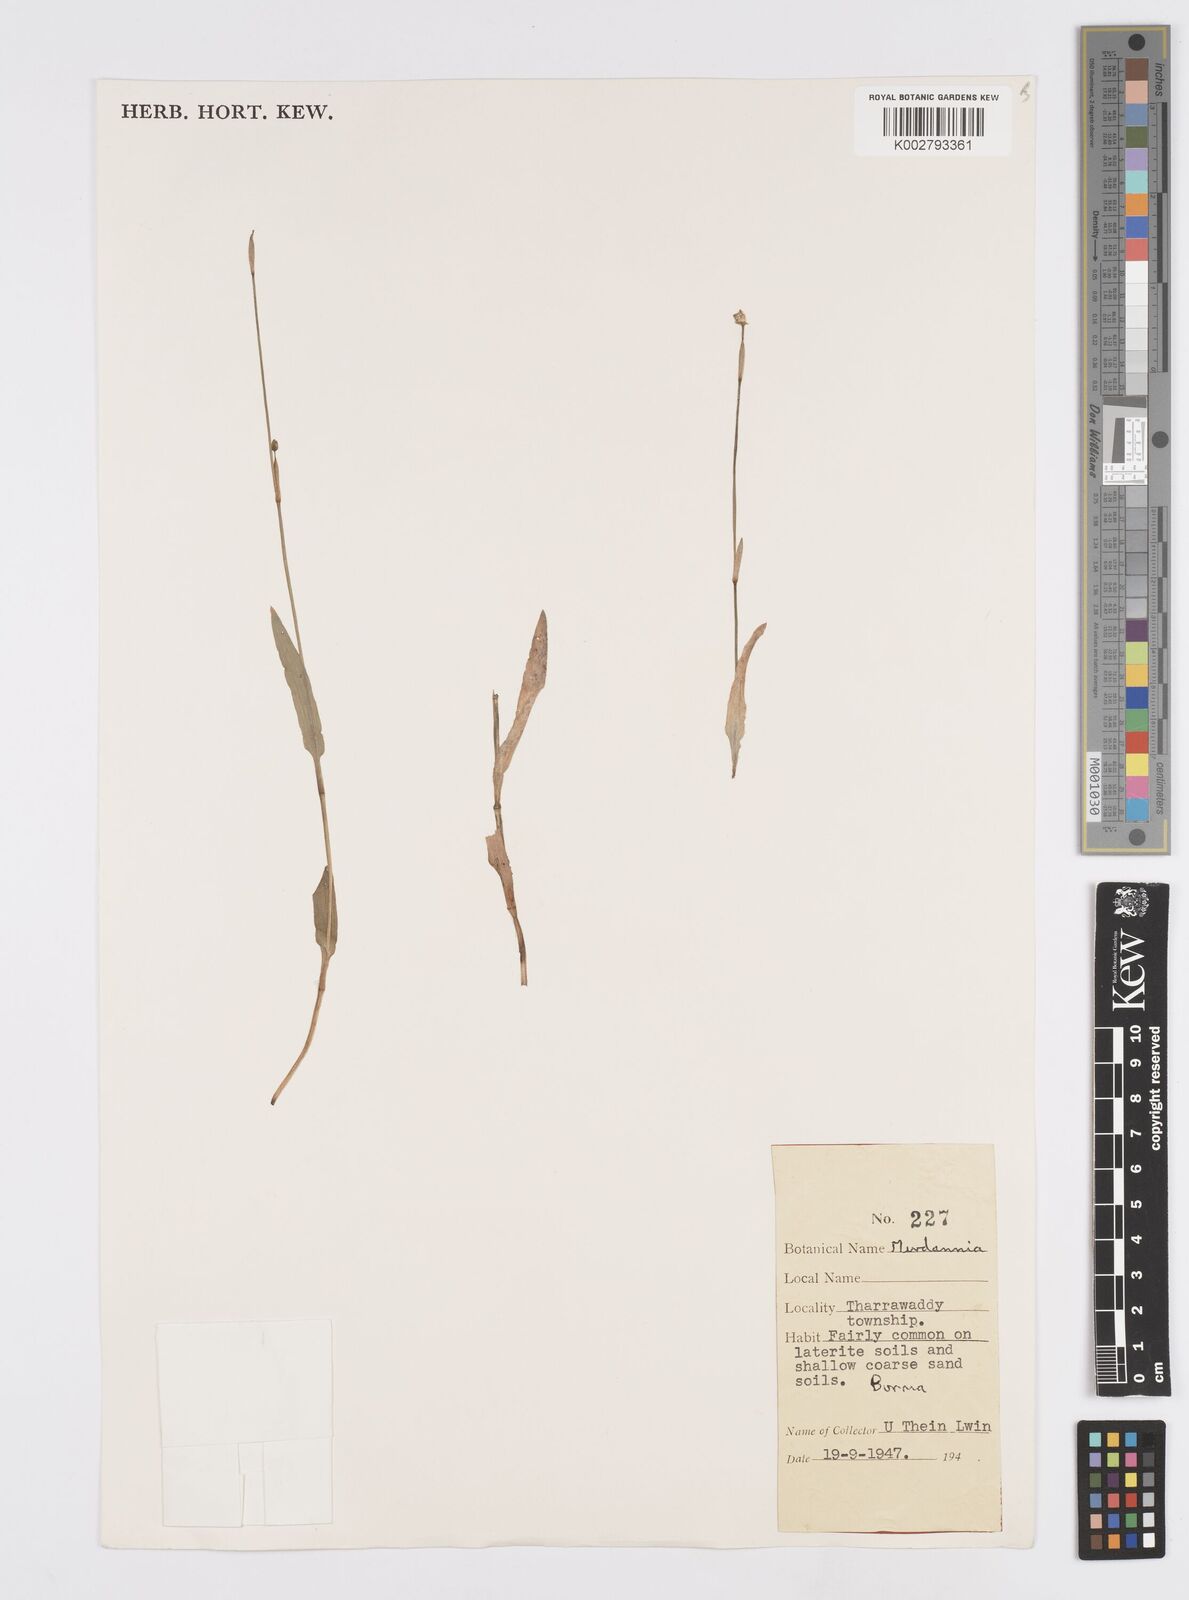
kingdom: Plantae
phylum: Tracheophyta
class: Liliopsida
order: Commelinales
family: Commelinaceae
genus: Murdannia
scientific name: Murdannia
